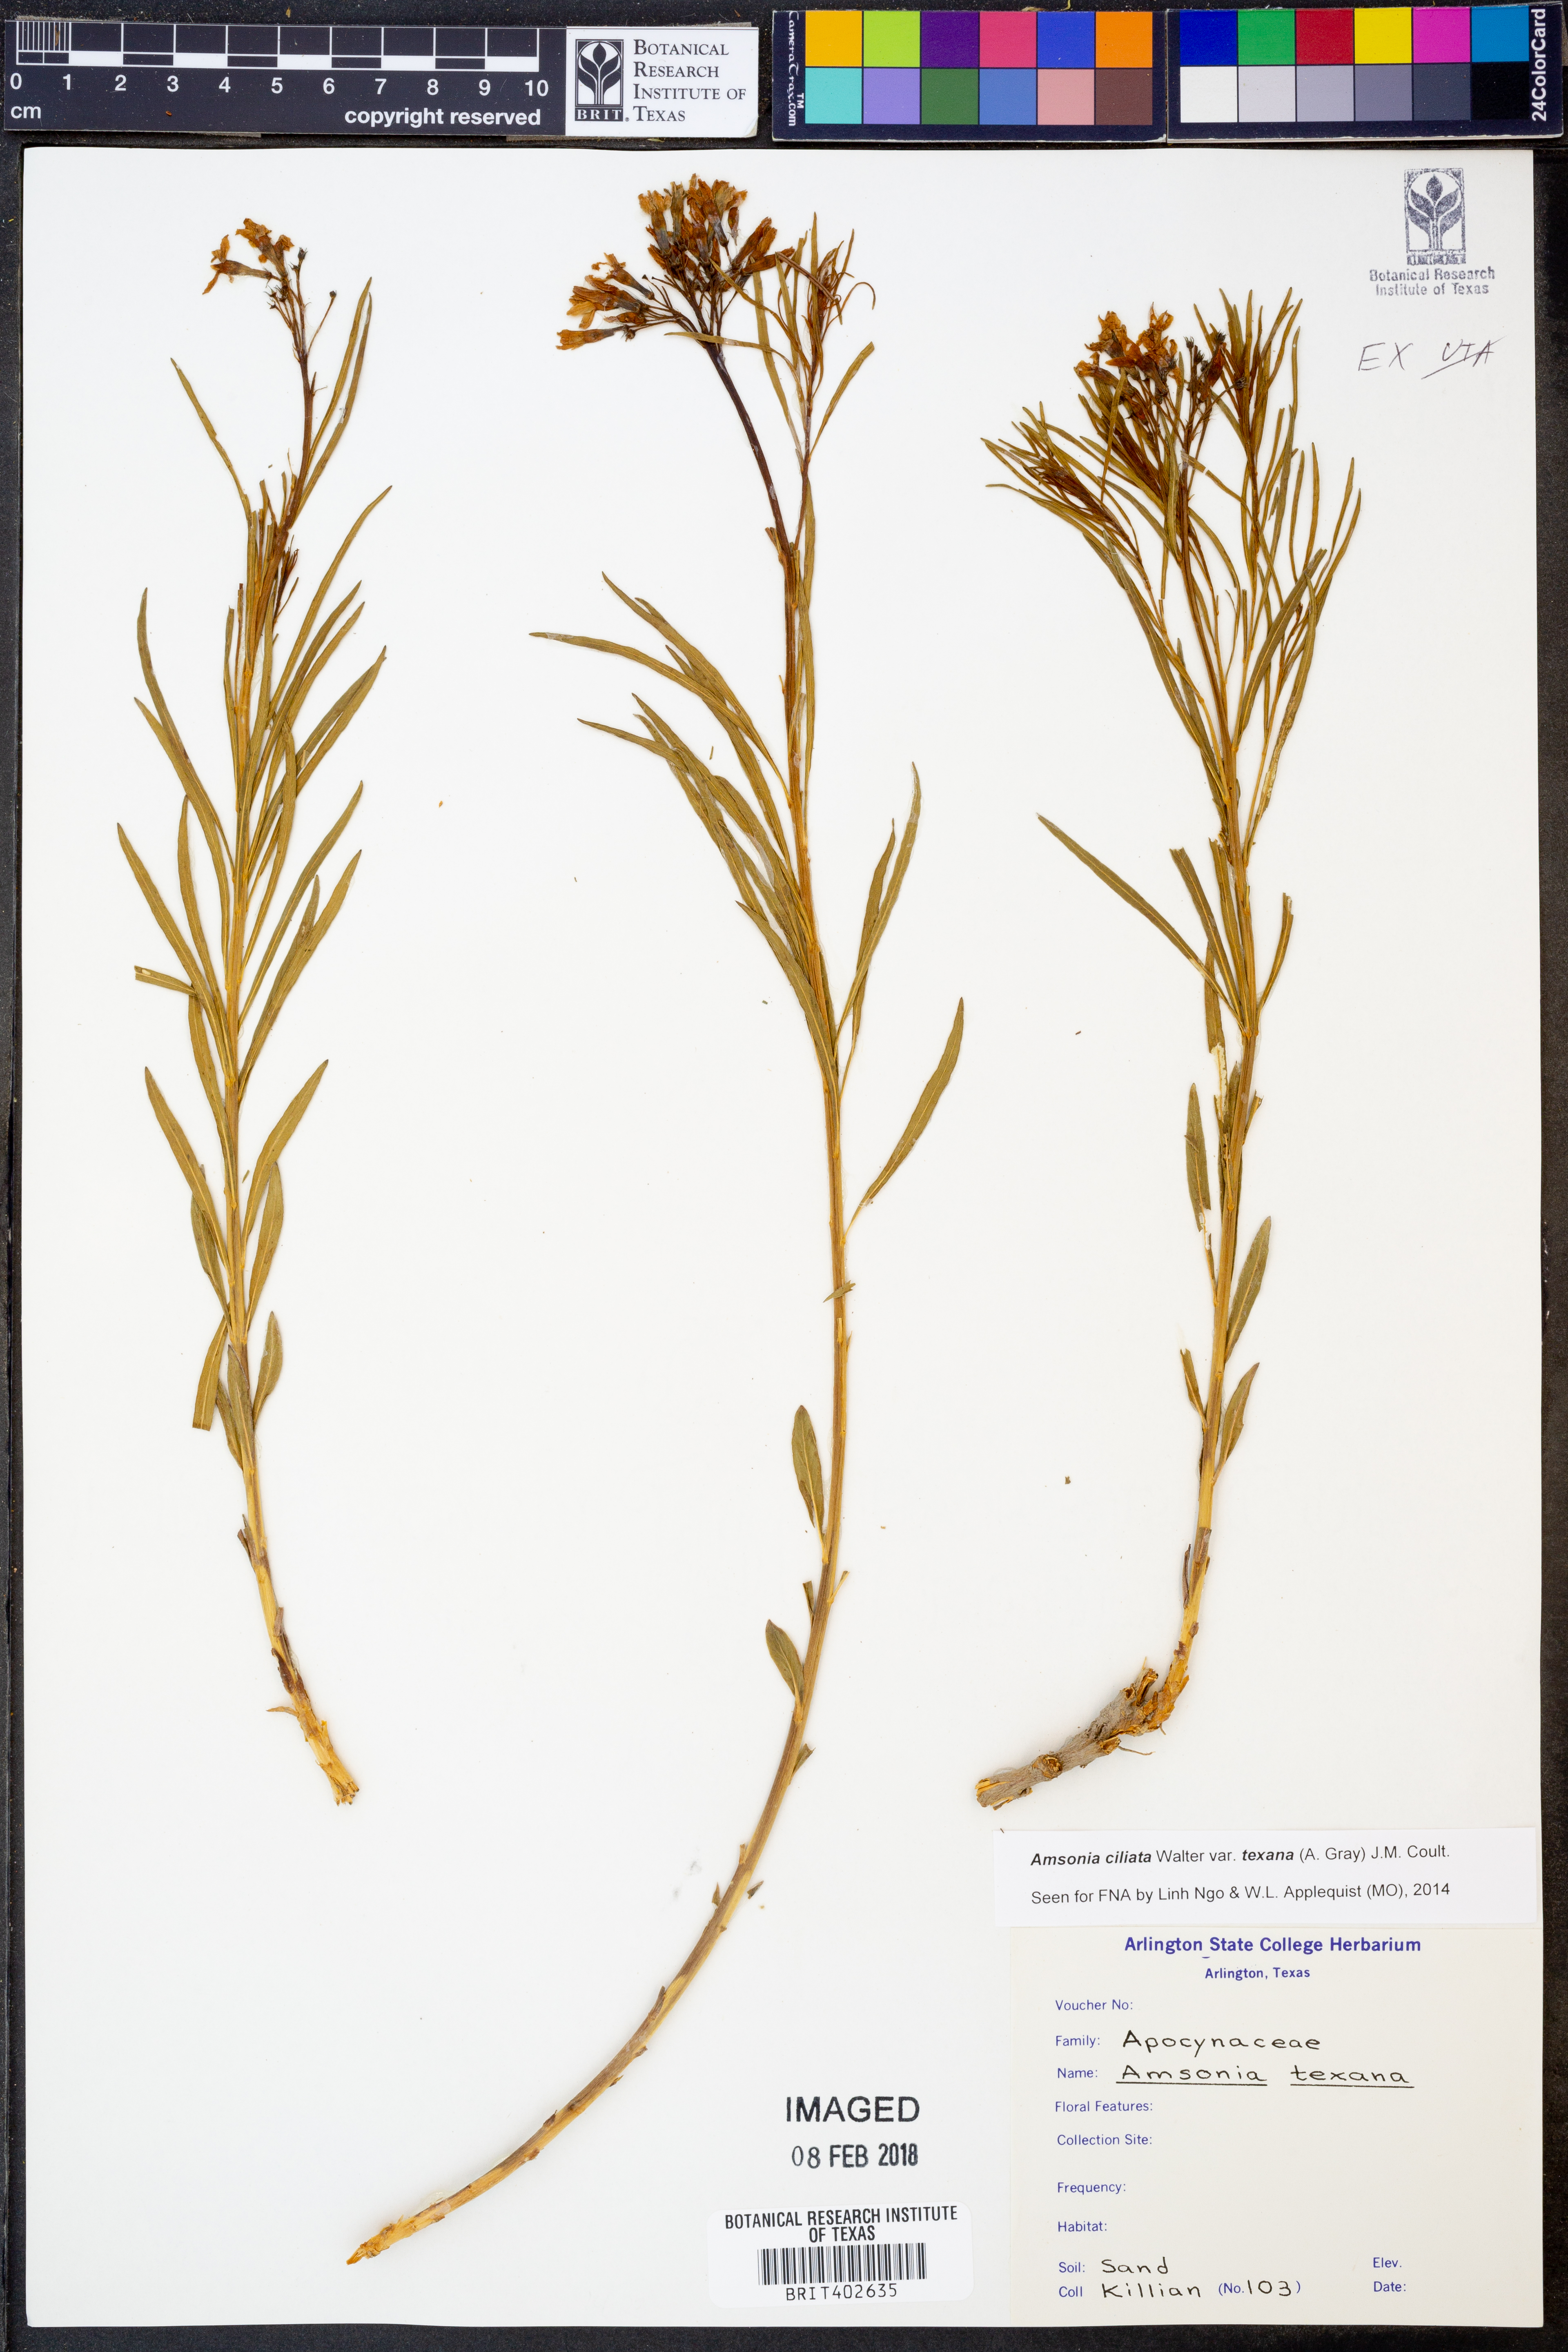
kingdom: Plantae
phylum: Tracheophyta
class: Magnoliopsida
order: Gentianales
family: Apocynaceae
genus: Amsonia
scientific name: Amsonia ciliata
